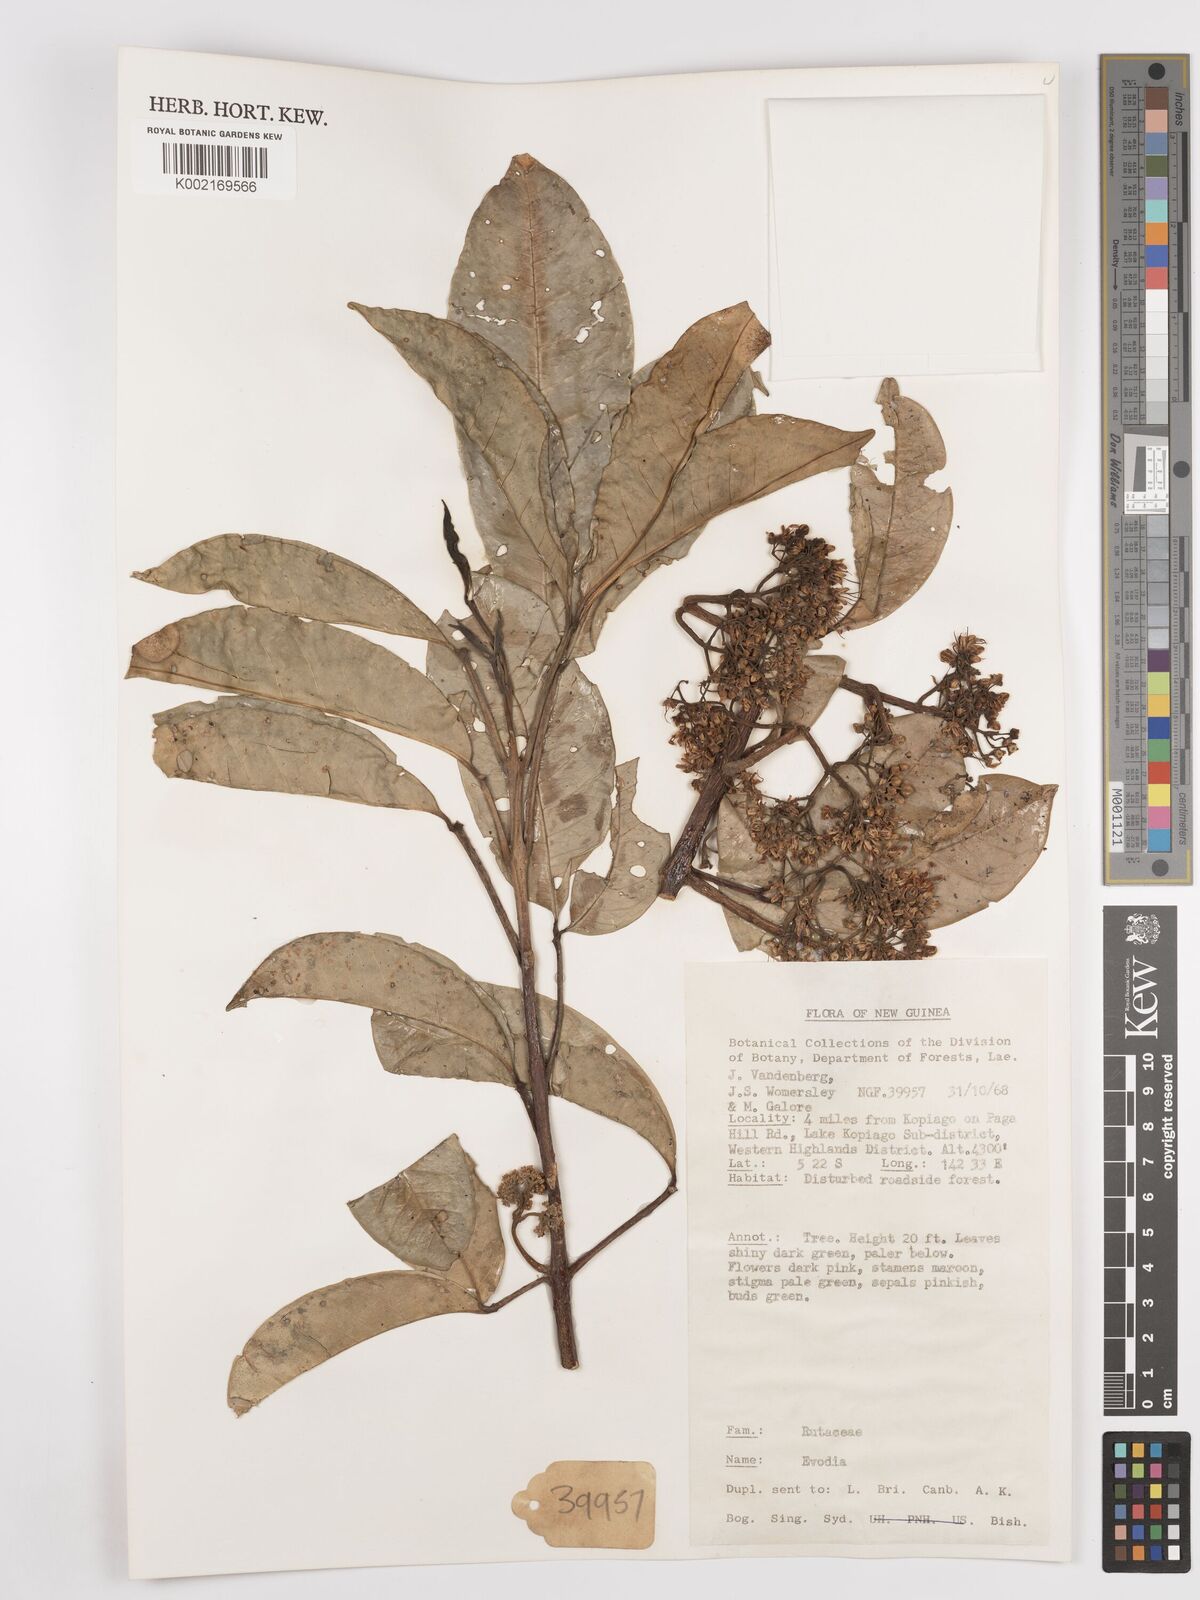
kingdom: Plantae
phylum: Tracheophyta
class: Magnoliopsida
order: Sapindales
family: Rutaceae
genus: Euodia
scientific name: Euodia
